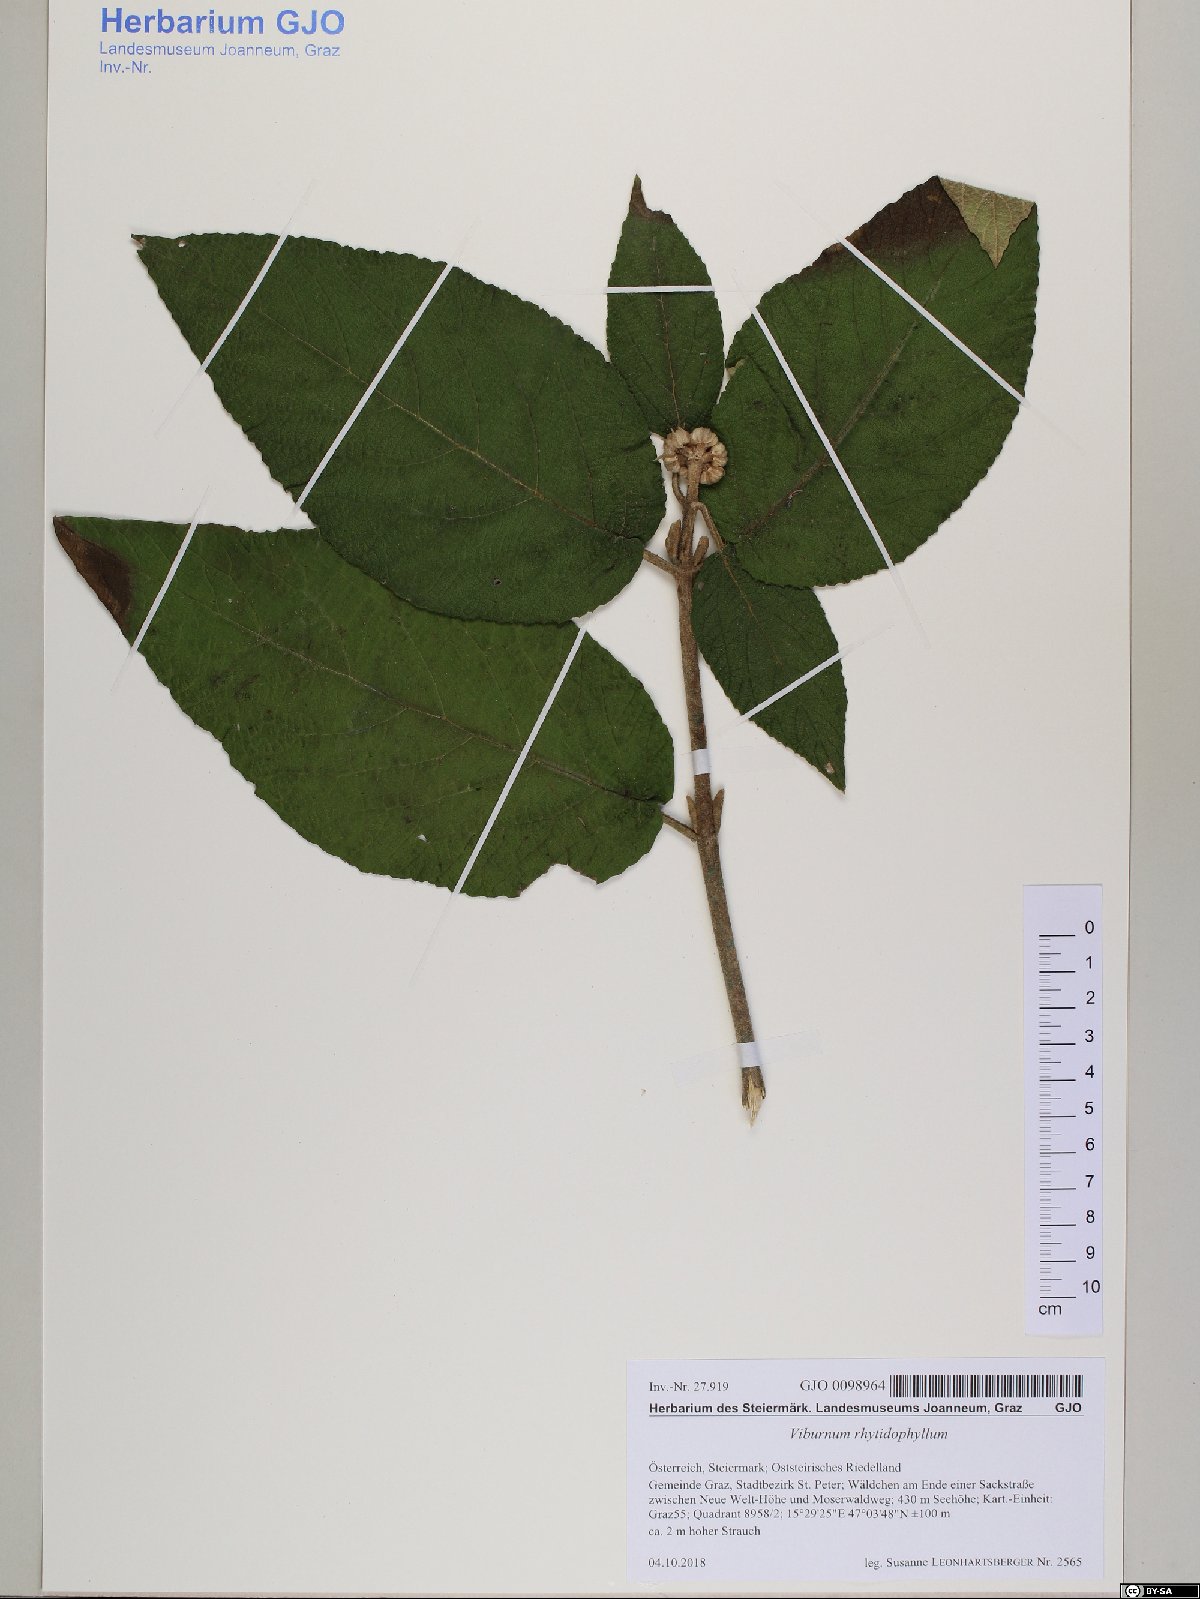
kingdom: Plantae
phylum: Tracheophyta
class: Magnoliopsida
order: Dipsacales
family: Viburnaceae
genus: Viburnum
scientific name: Viburnum rhytidophyllum
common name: Wrinkled viburnum
